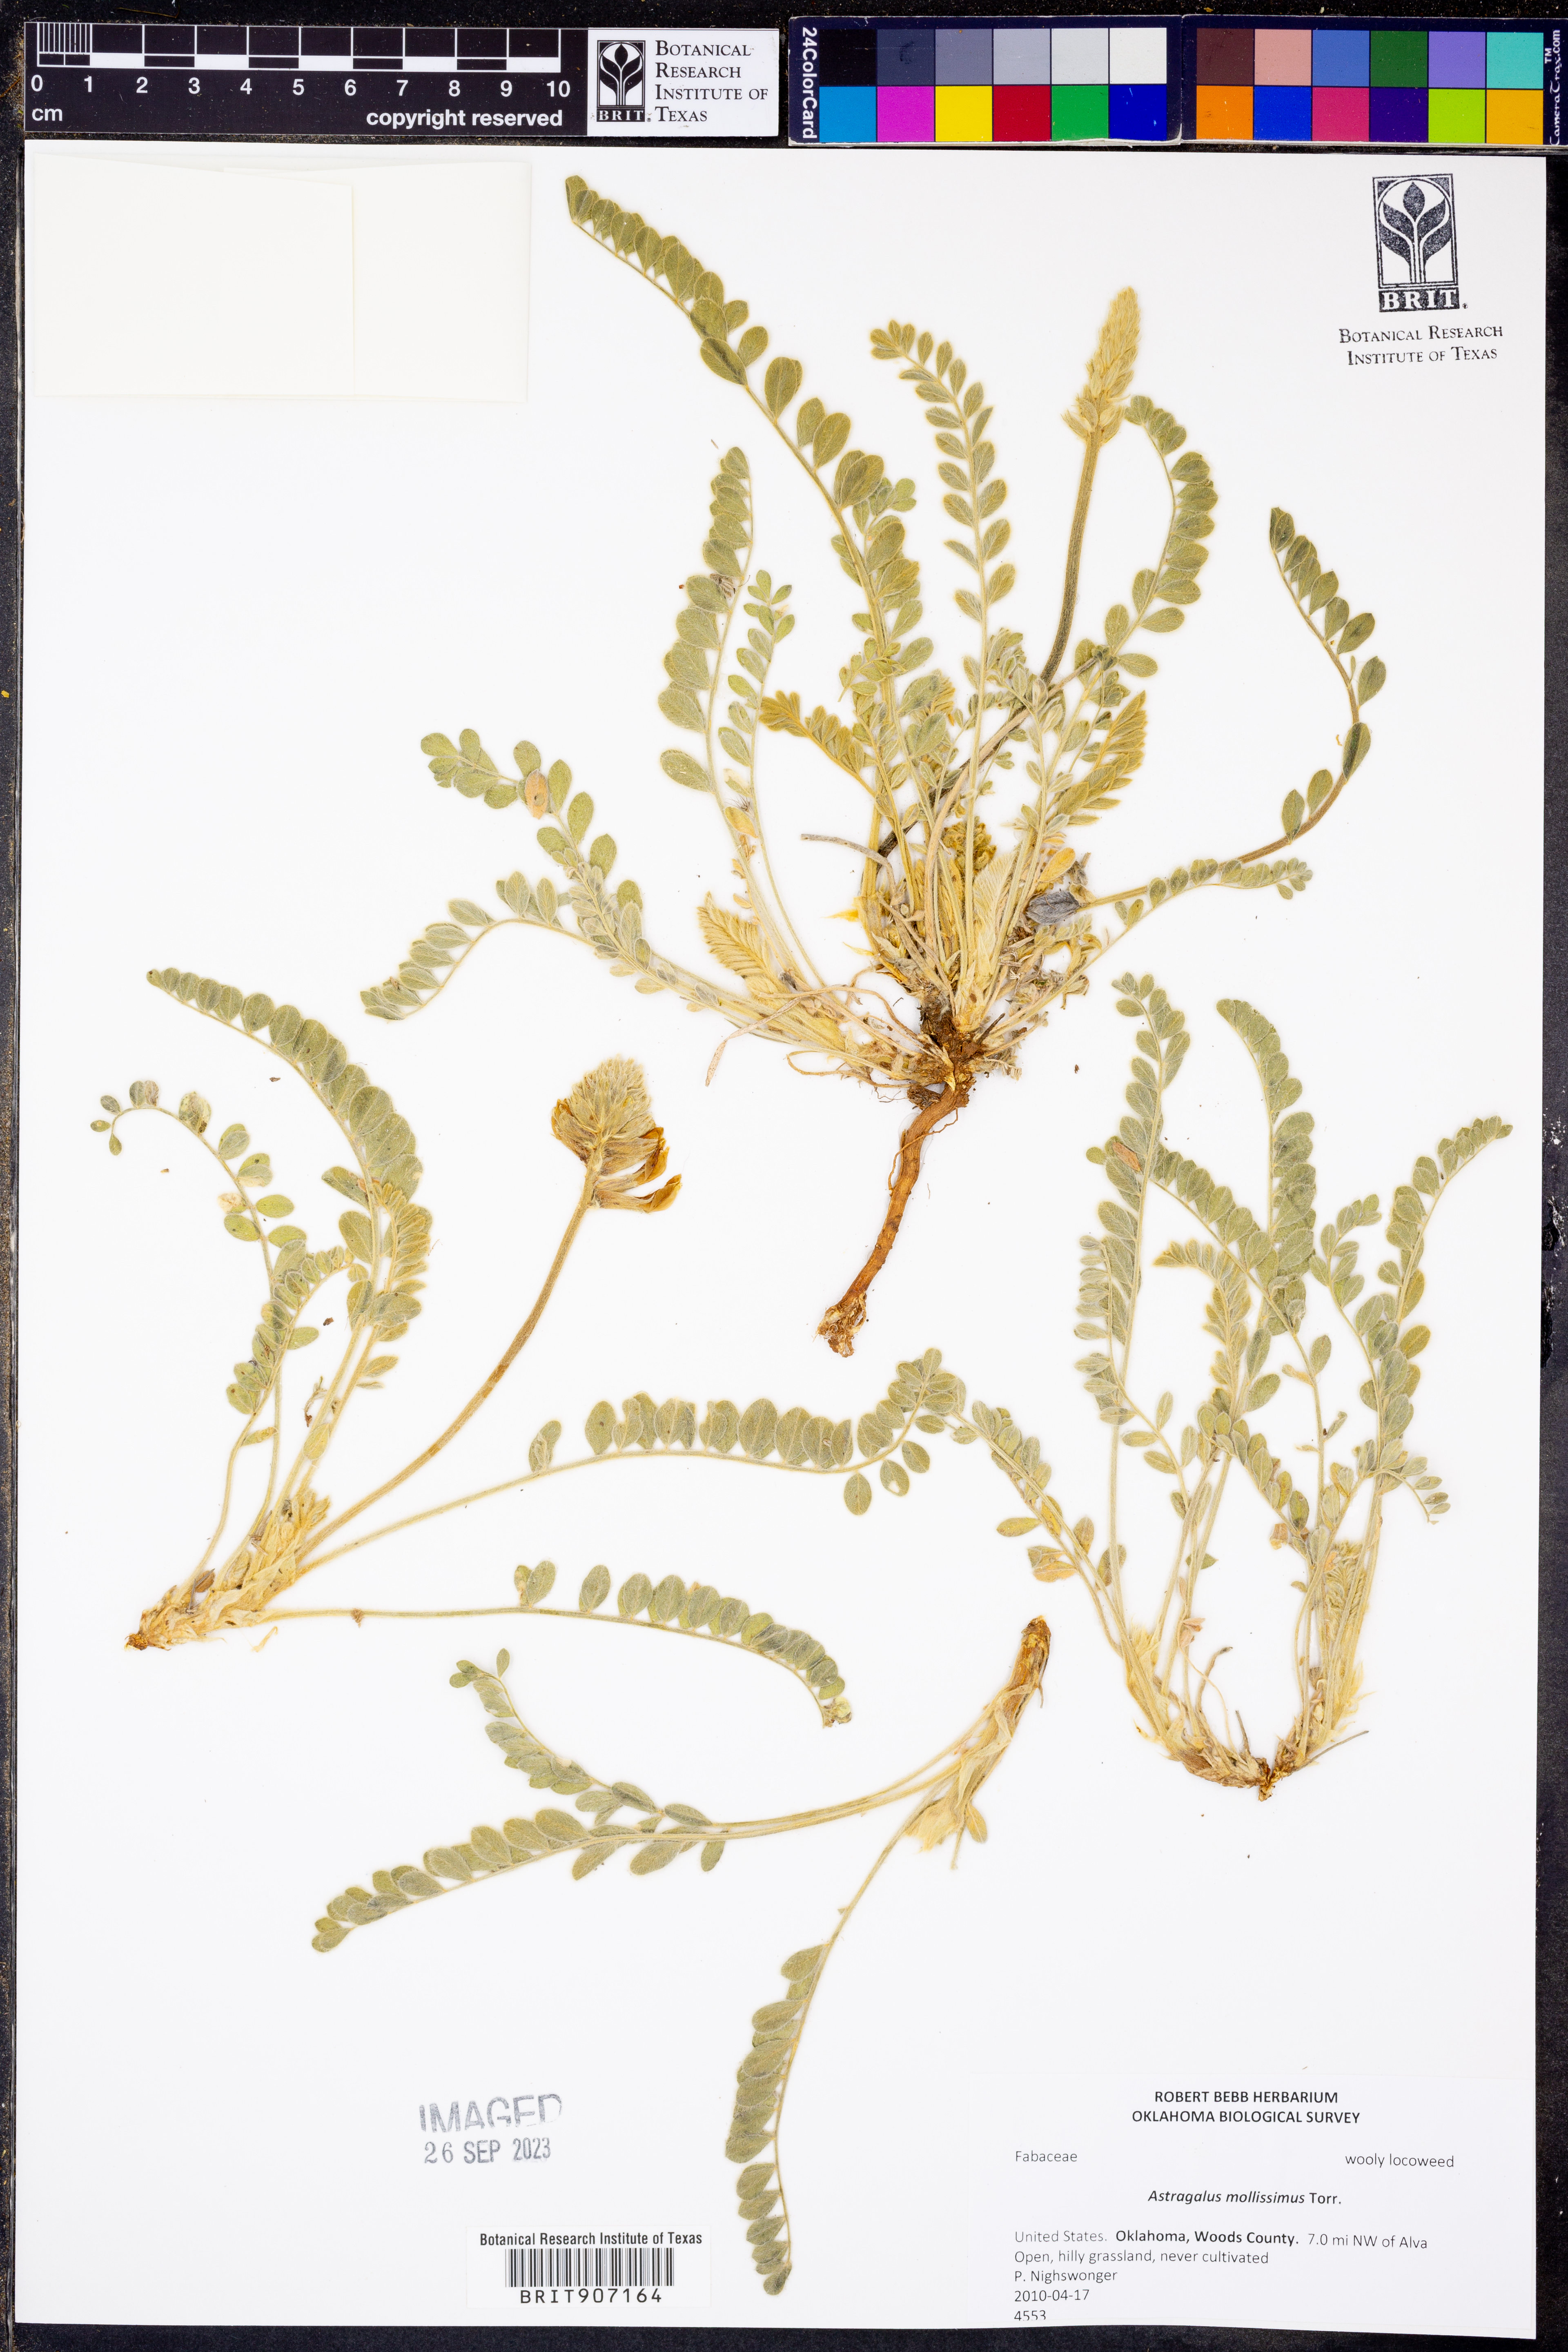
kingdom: Plantae
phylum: Tracheophyta
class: Magnoliopsida
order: Fabales
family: Fabaceae
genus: Astragalus
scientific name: Astragalus mollissimus
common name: Woolly locoweed
